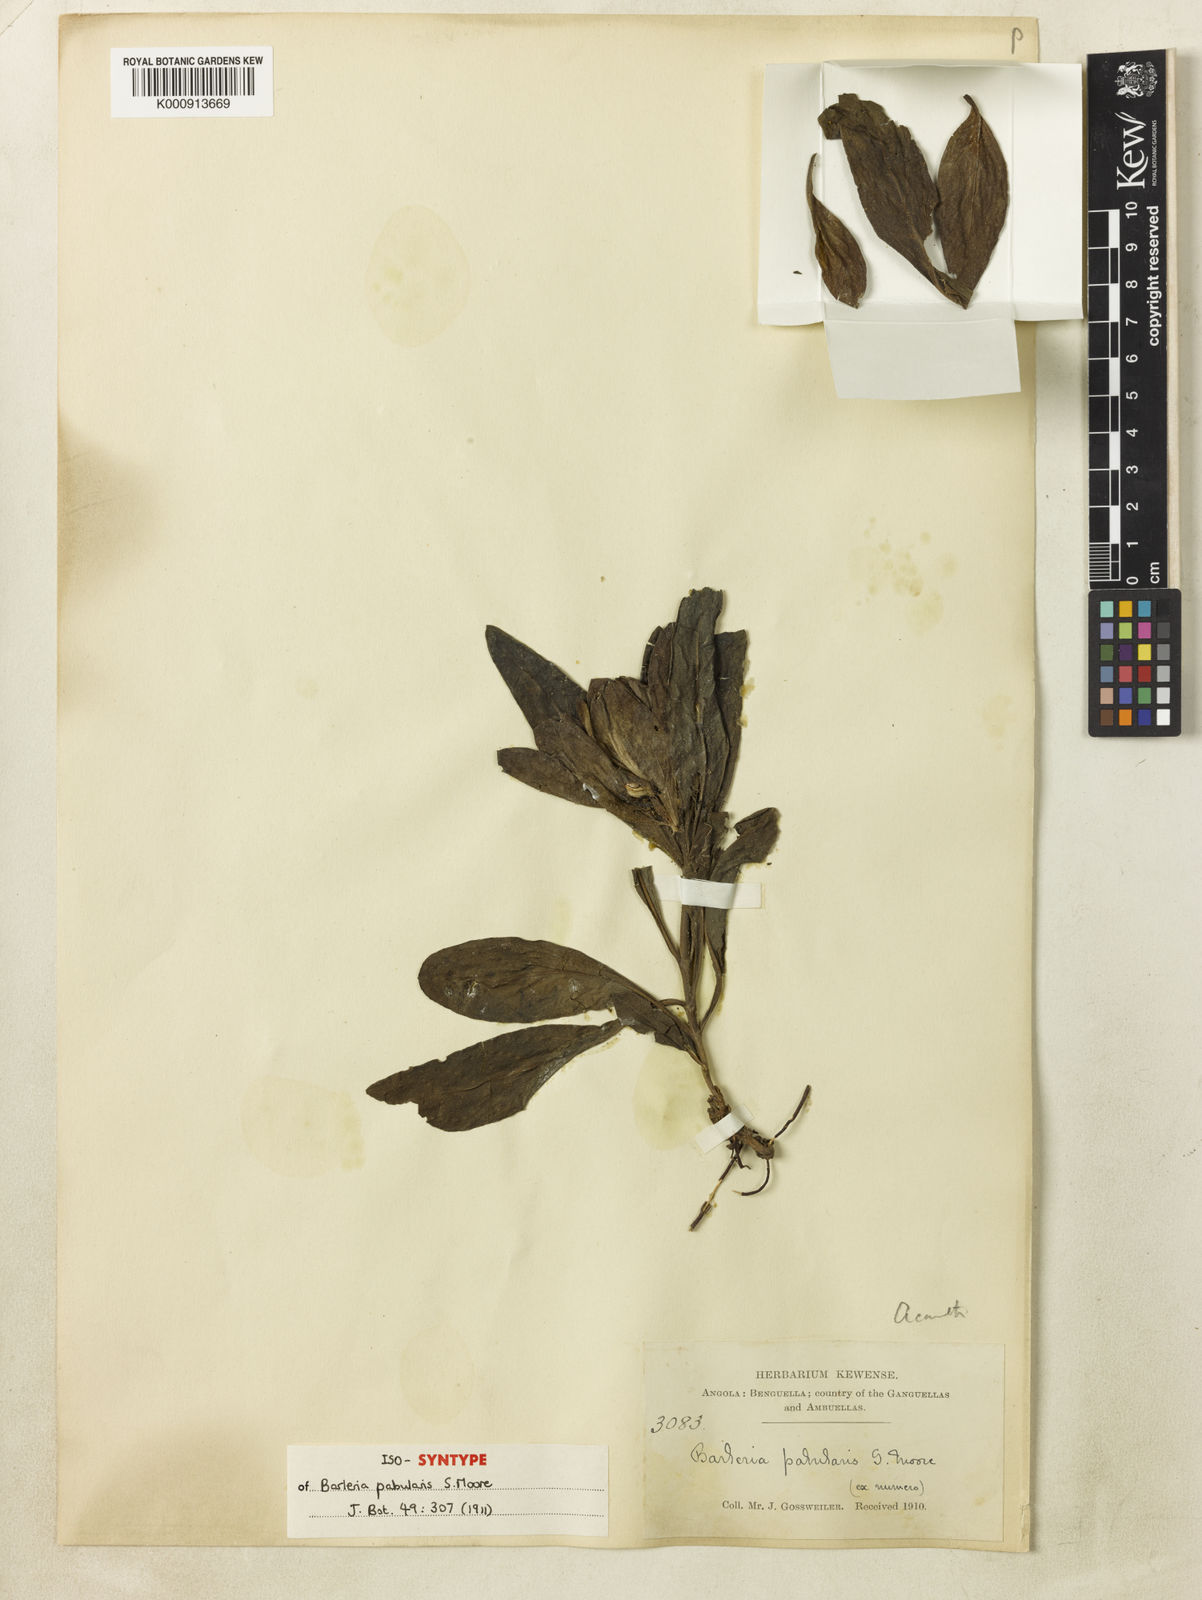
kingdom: Plantae
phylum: Tracheophyta
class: Magnoliopsida
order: Lamiales
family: Acanthaceae
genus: Barleria
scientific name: Barleria pabularis
